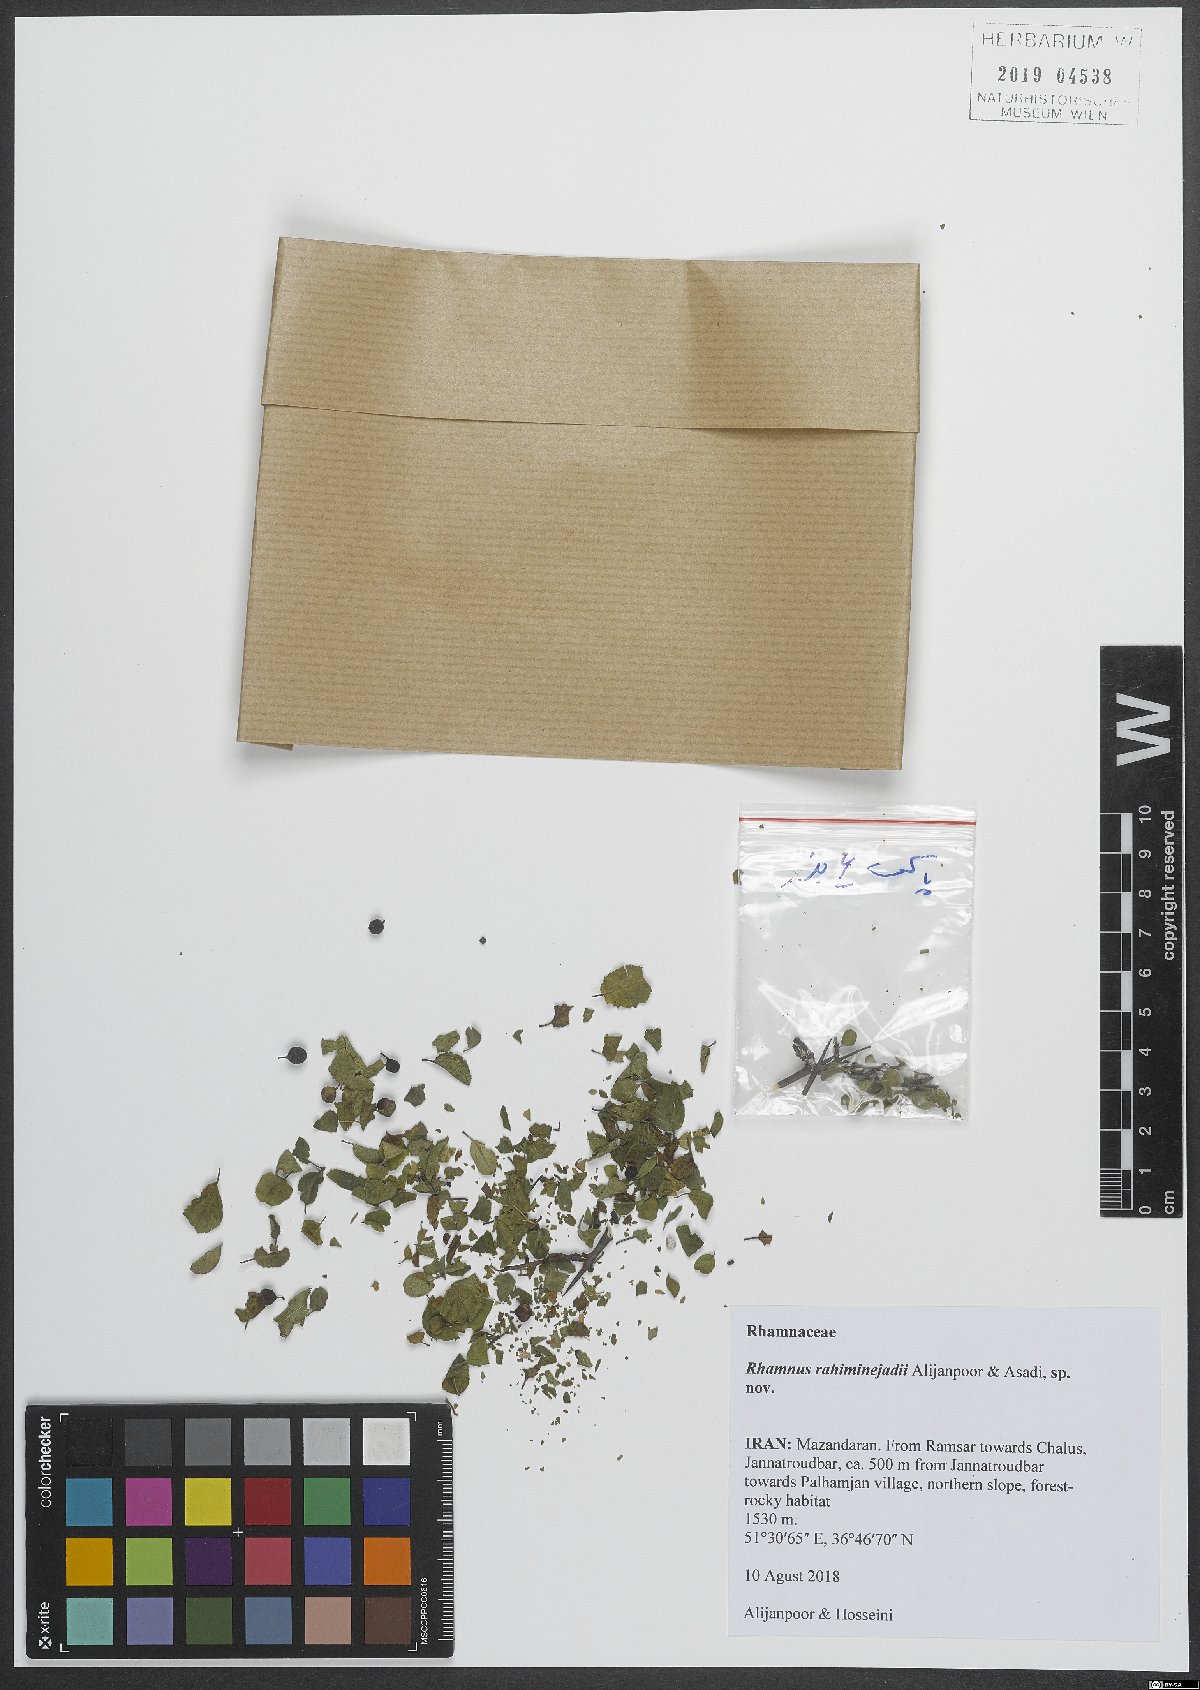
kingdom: Plantae
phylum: Tracheophyta
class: Magnoliopsida
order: Rosales
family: Rhamnaceae
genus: Rhamnus
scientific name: Rhamnus
